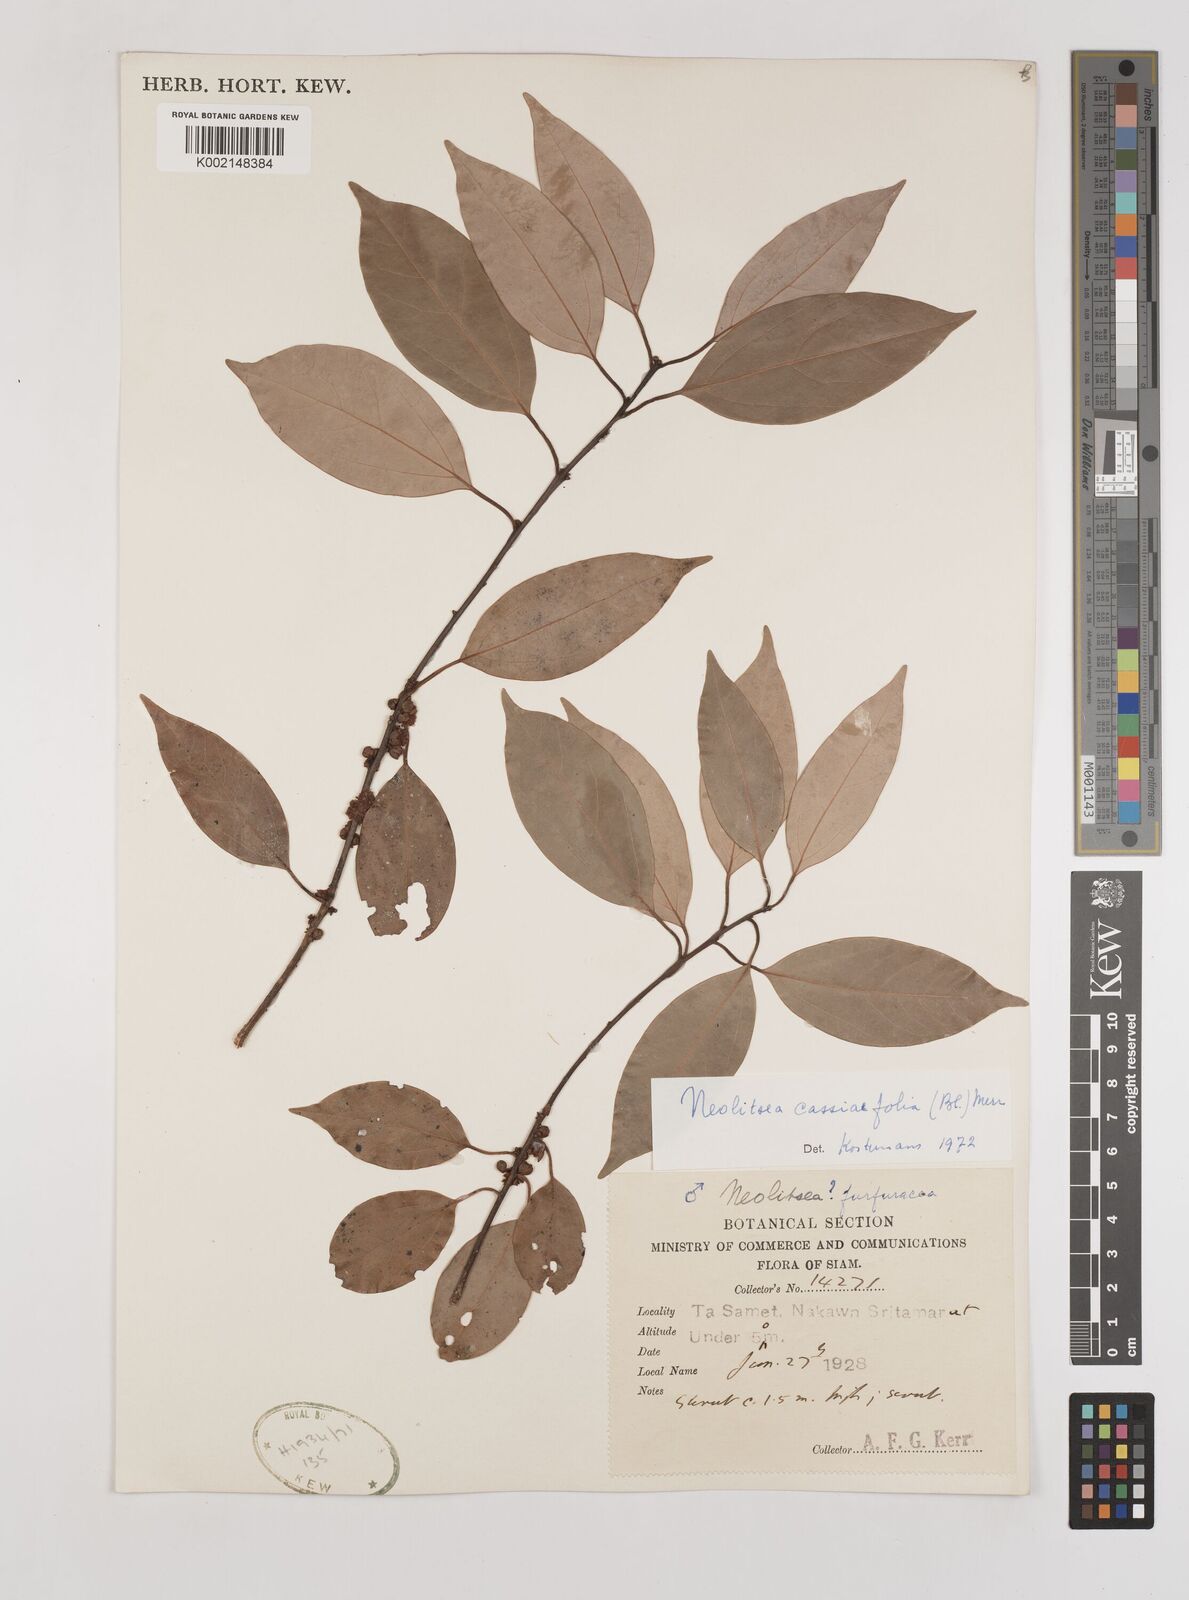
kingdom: Plantae
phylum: Tracheophyta
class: Magnoliopsida
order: Laurales
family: Lauraceae
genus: Neolitsea
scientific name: Neolitsea cassiifolia
